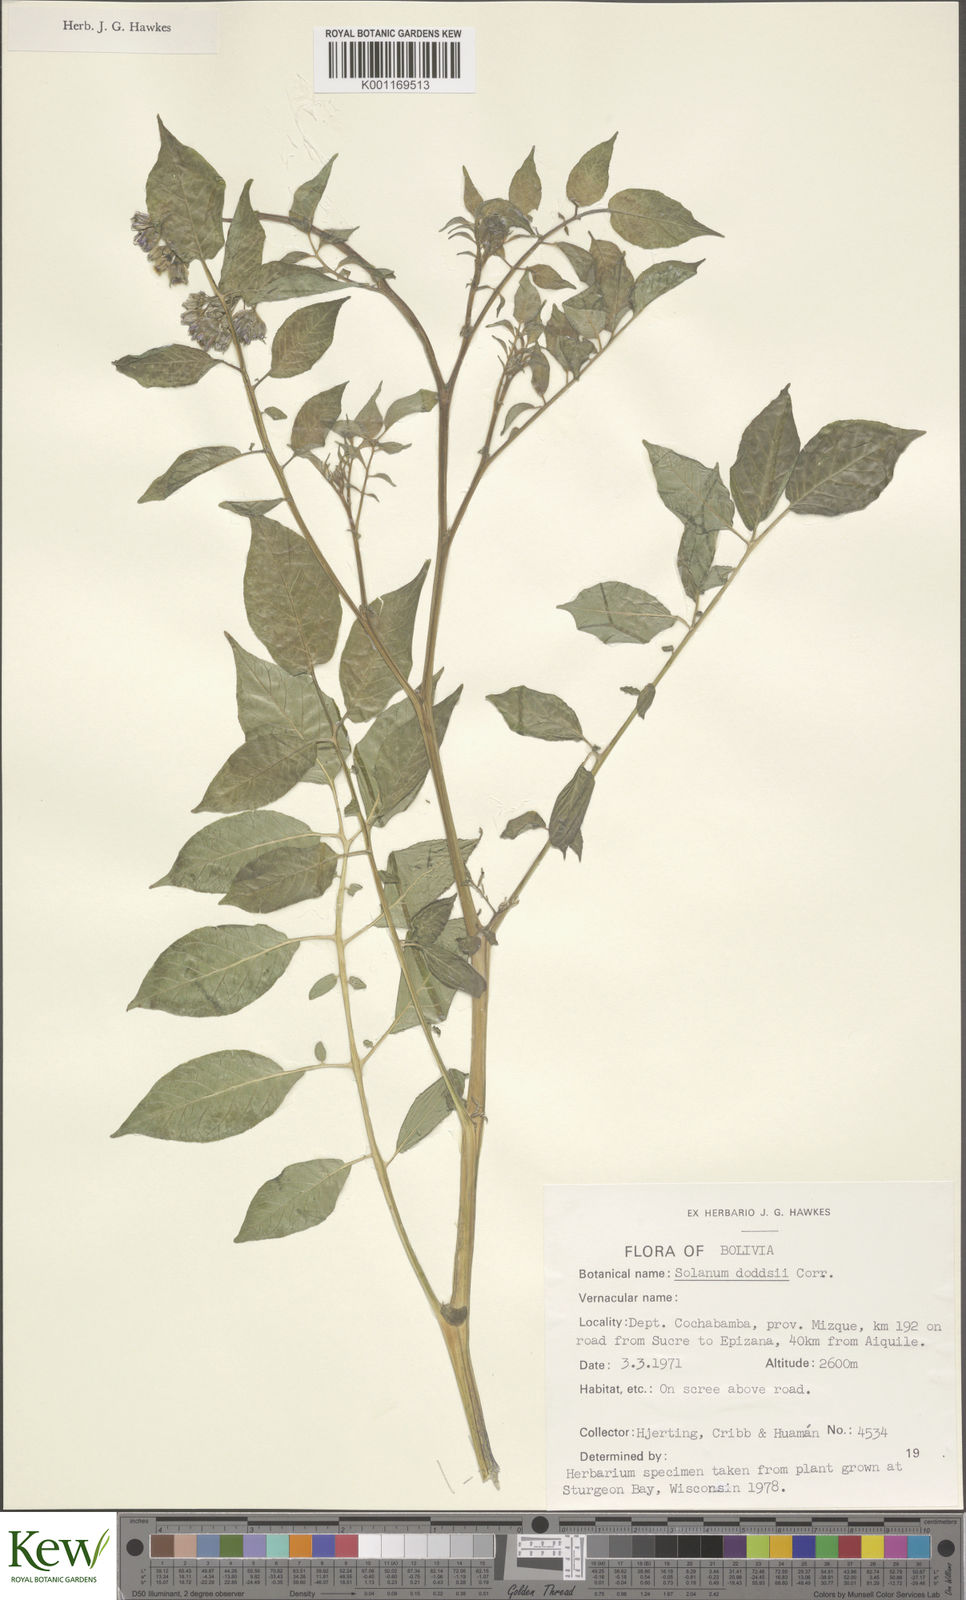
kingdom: Plantae
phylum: Tracheophyta
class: Magnoliopsida
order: Solanales
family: Solanaceae
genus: Solanum
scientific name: Solanum doddsii
